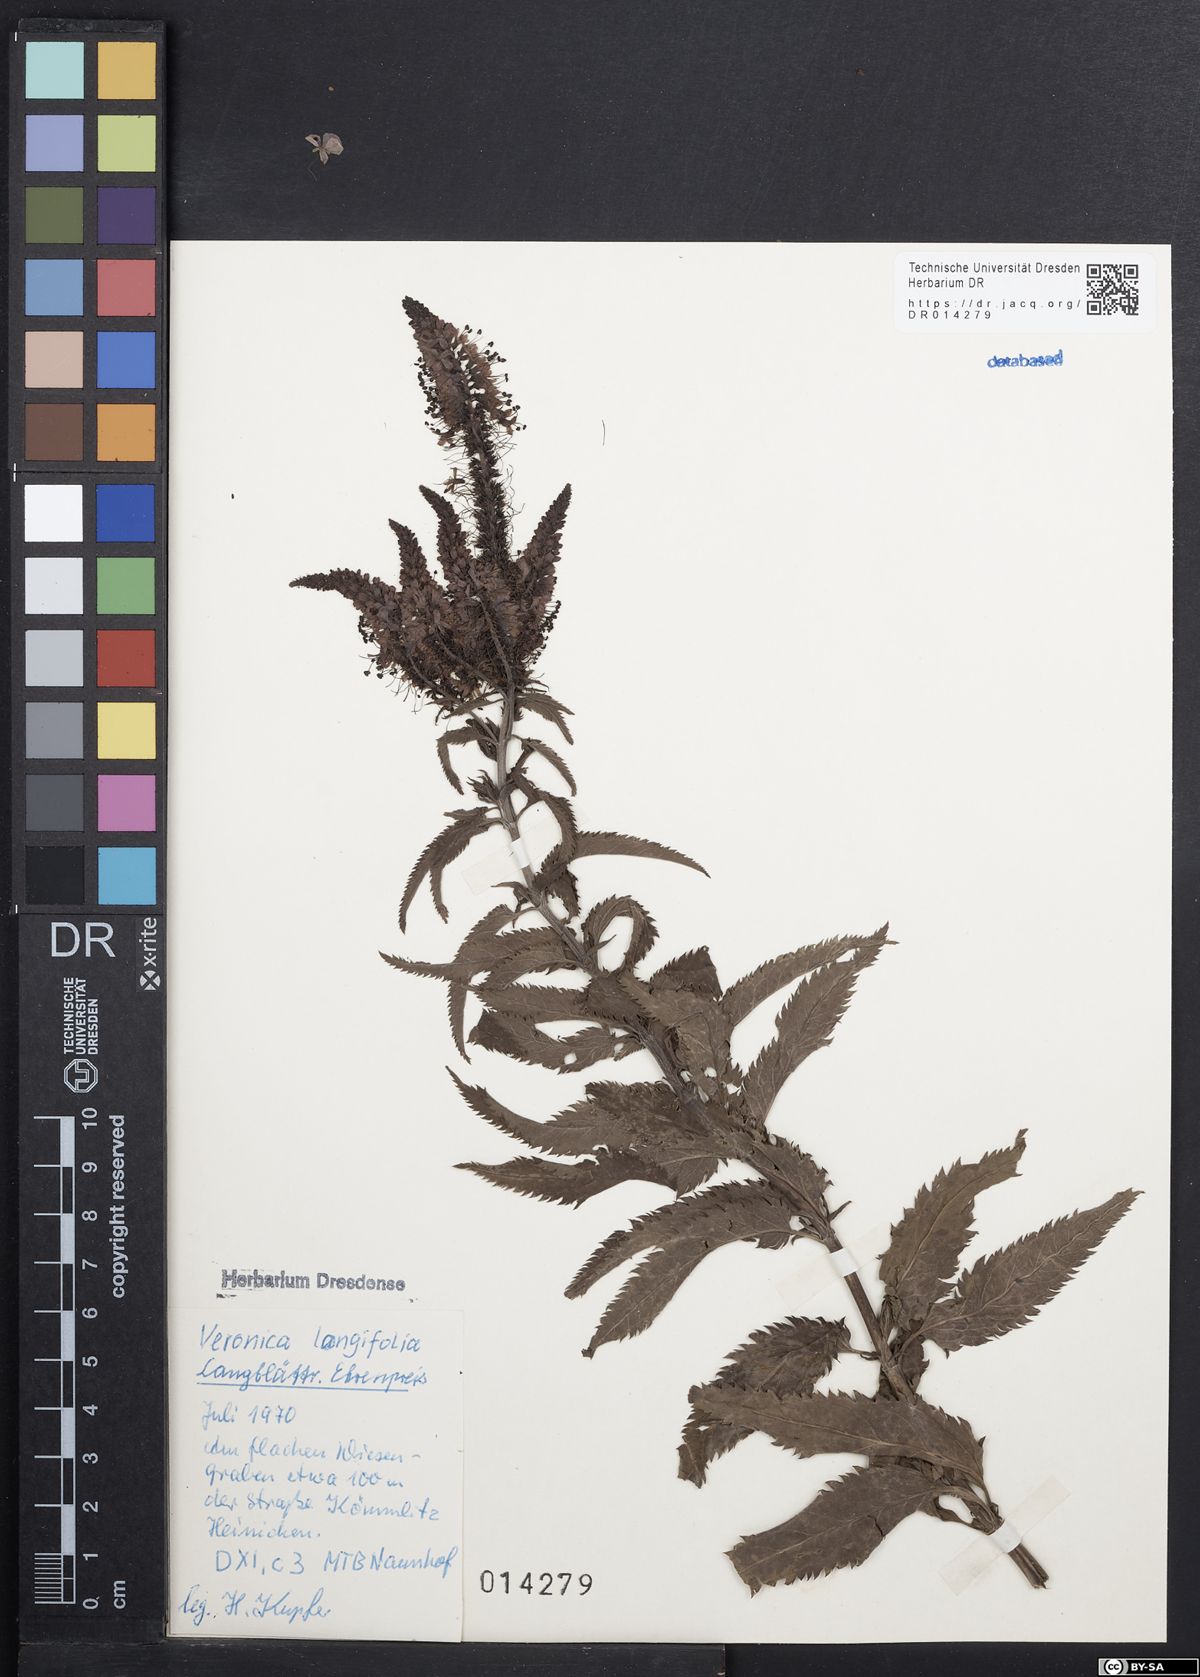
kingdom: Plantae
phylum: Tracheophyta
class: Magnoliopsida
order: Lamiales
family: Plantaginaceae
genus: Veronica
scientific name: Veronica longifolia
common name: Garden speedwell
